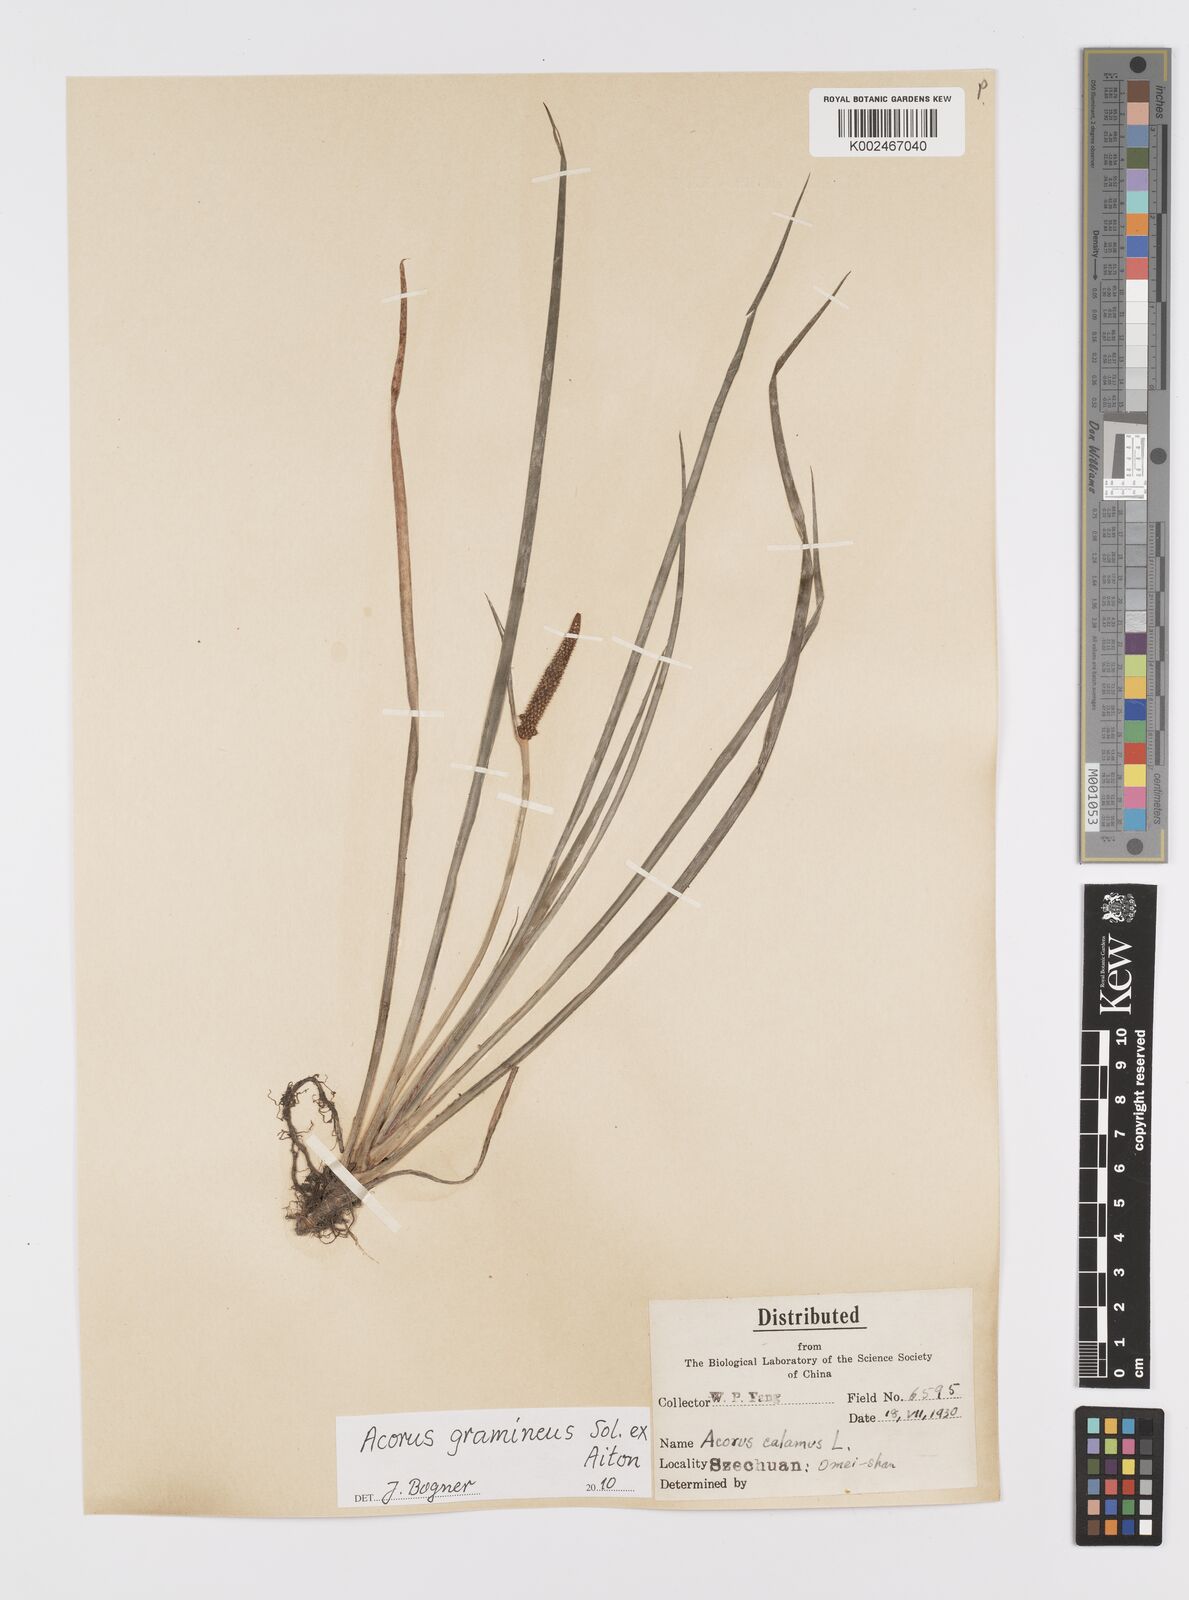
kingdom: Plantae
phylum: Tracheophyta
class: Liliopsida
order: Acorales
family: Acoraceae
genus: Acorus
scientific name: Acorus gramineus
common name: Slender sweet-flag
